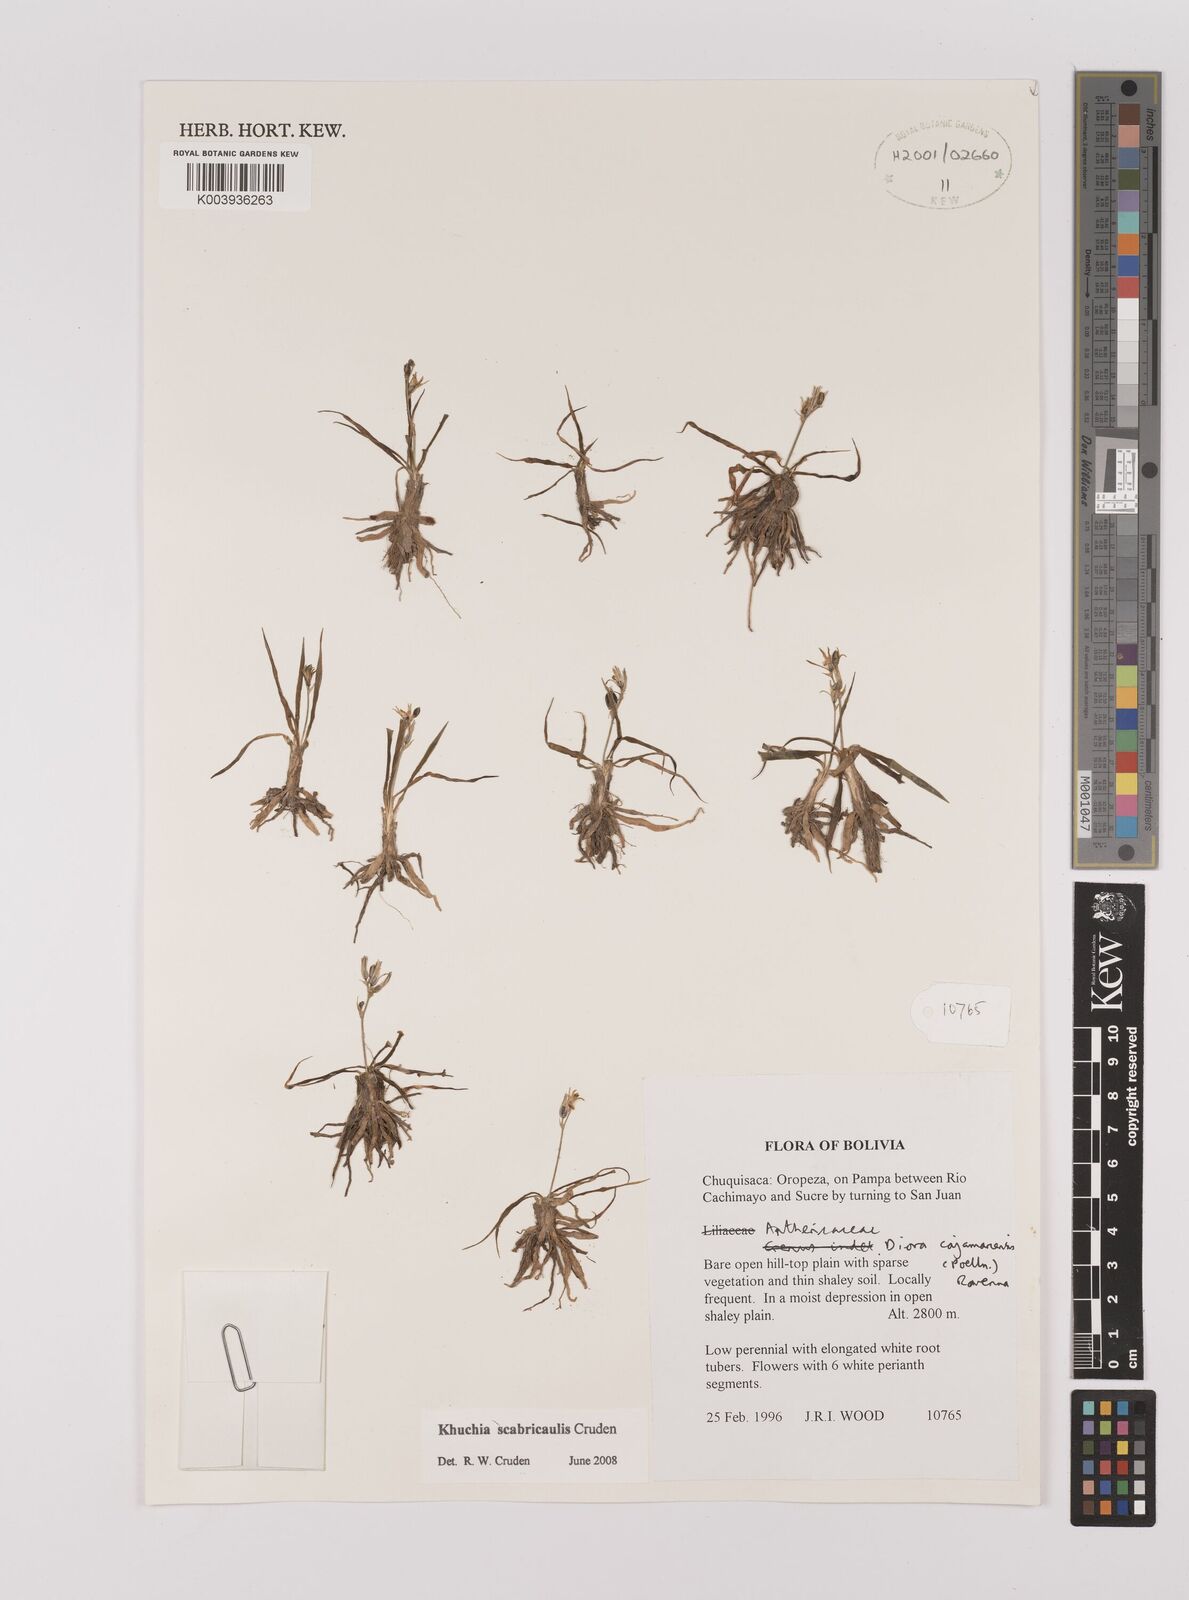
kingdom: Plantae
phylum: Tracheophyta
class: Liliopsida
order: Asparagales
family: Asparagaceae
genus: Echeandia
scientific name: Echeandia
